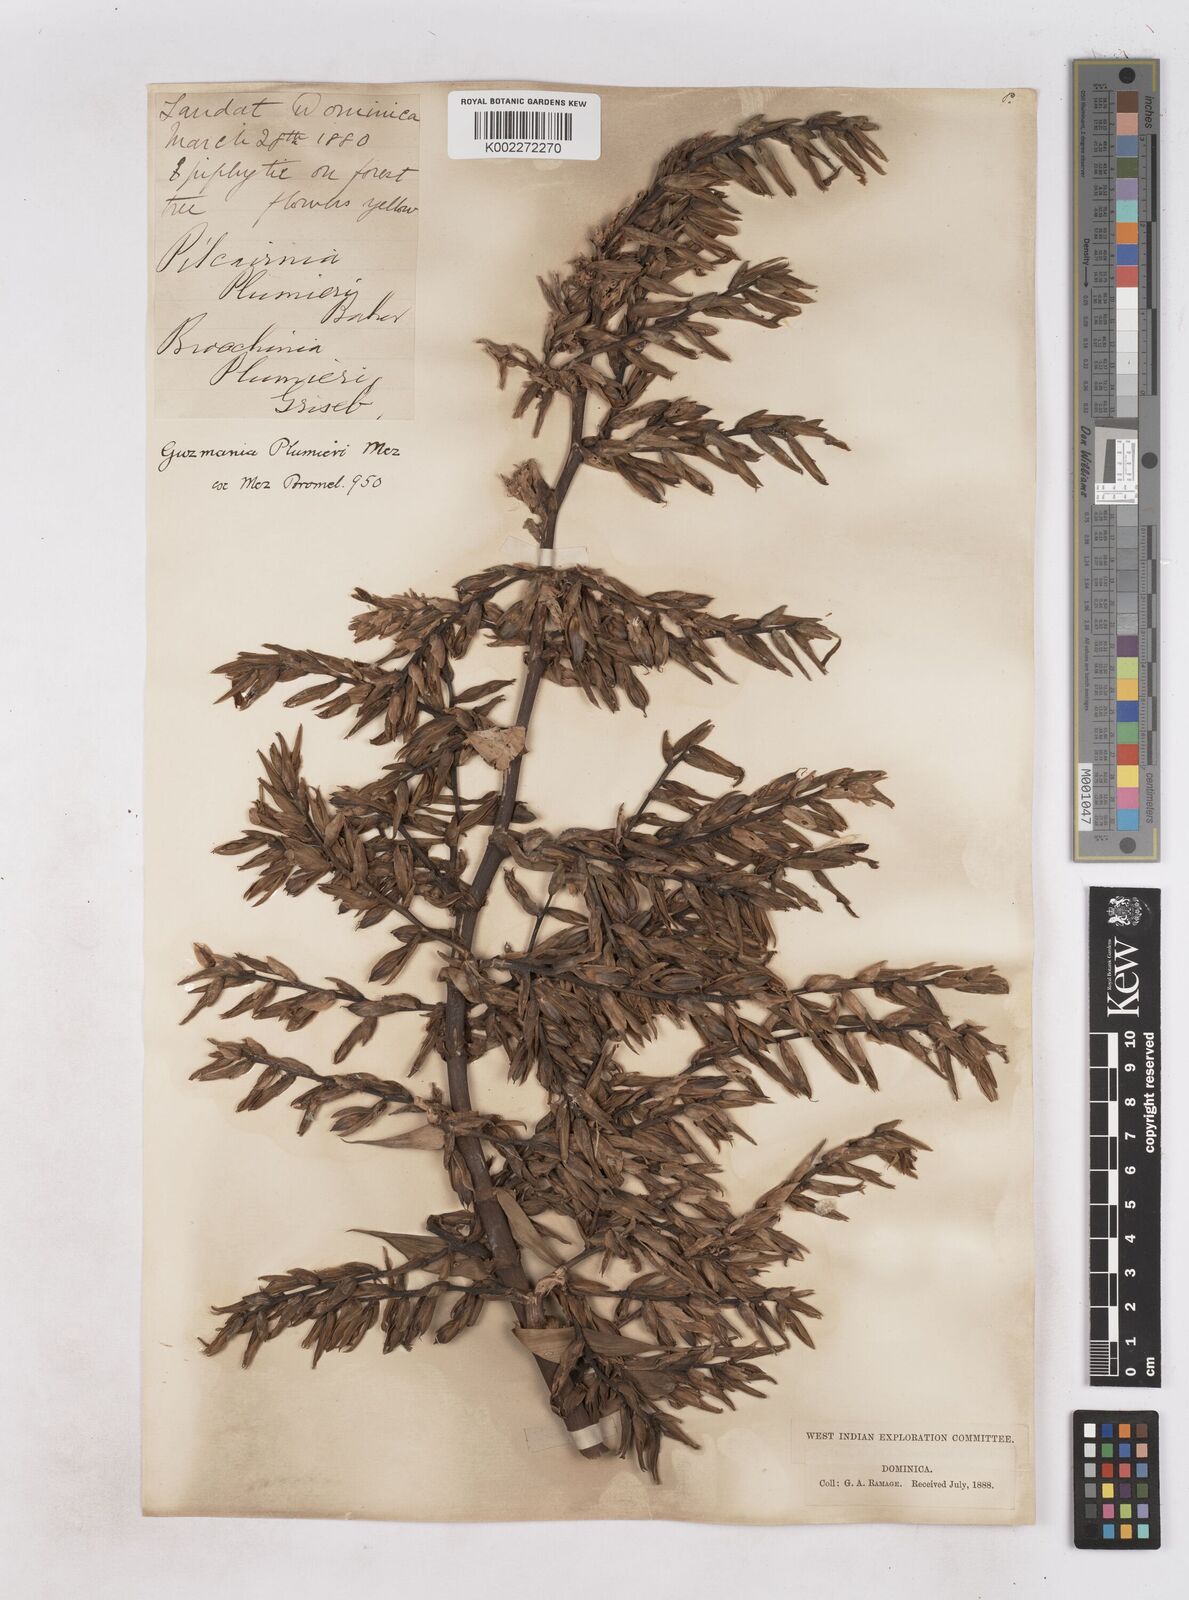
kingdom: Plantae
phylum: Tracheophyta
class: Liliopsida
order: Poales
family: Bromeliaceae
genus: Guzmania
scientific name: Guzmania plumieri
